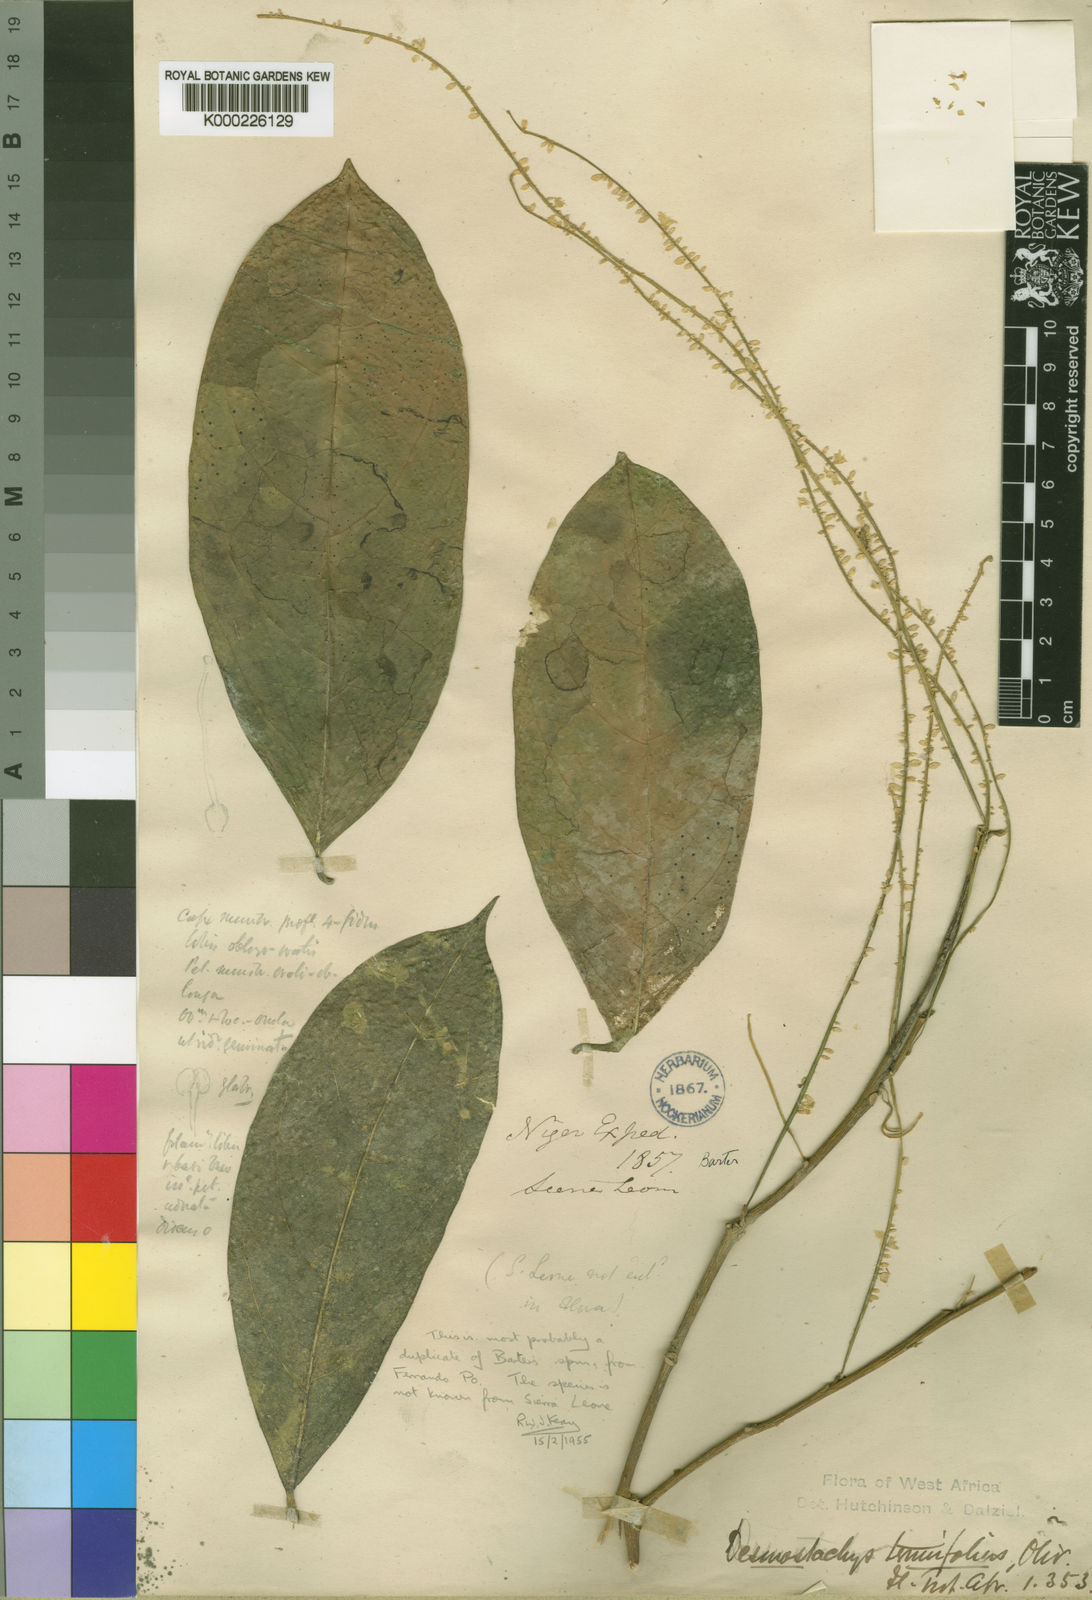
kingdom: Plantae
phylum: Tracheophyta
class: Magnoliopsida
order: Icacinales
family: Icacinaceae
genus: Vadensea
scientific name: Vadensea tenuifolia
